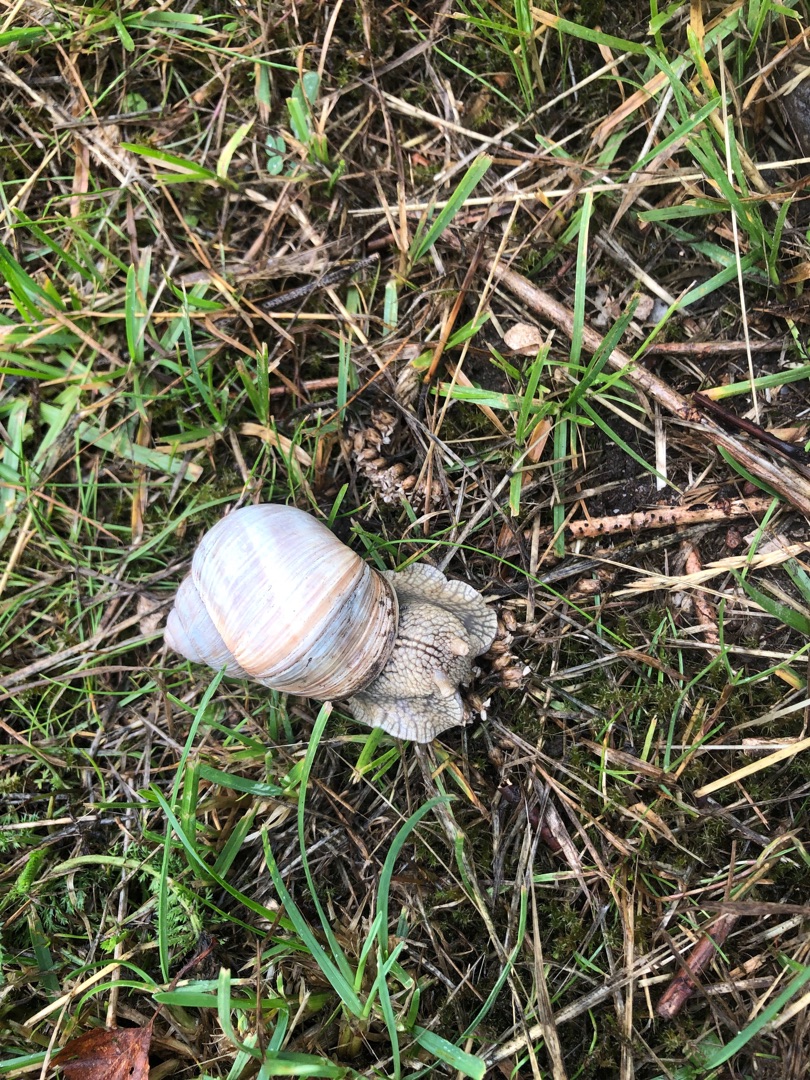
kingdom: Animalia
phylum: Mollusca
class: Gastropoda
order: Stylommatophora
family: Helicidae
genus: Helix
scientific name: Helix pomatia
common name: Vinbjergsnegl
